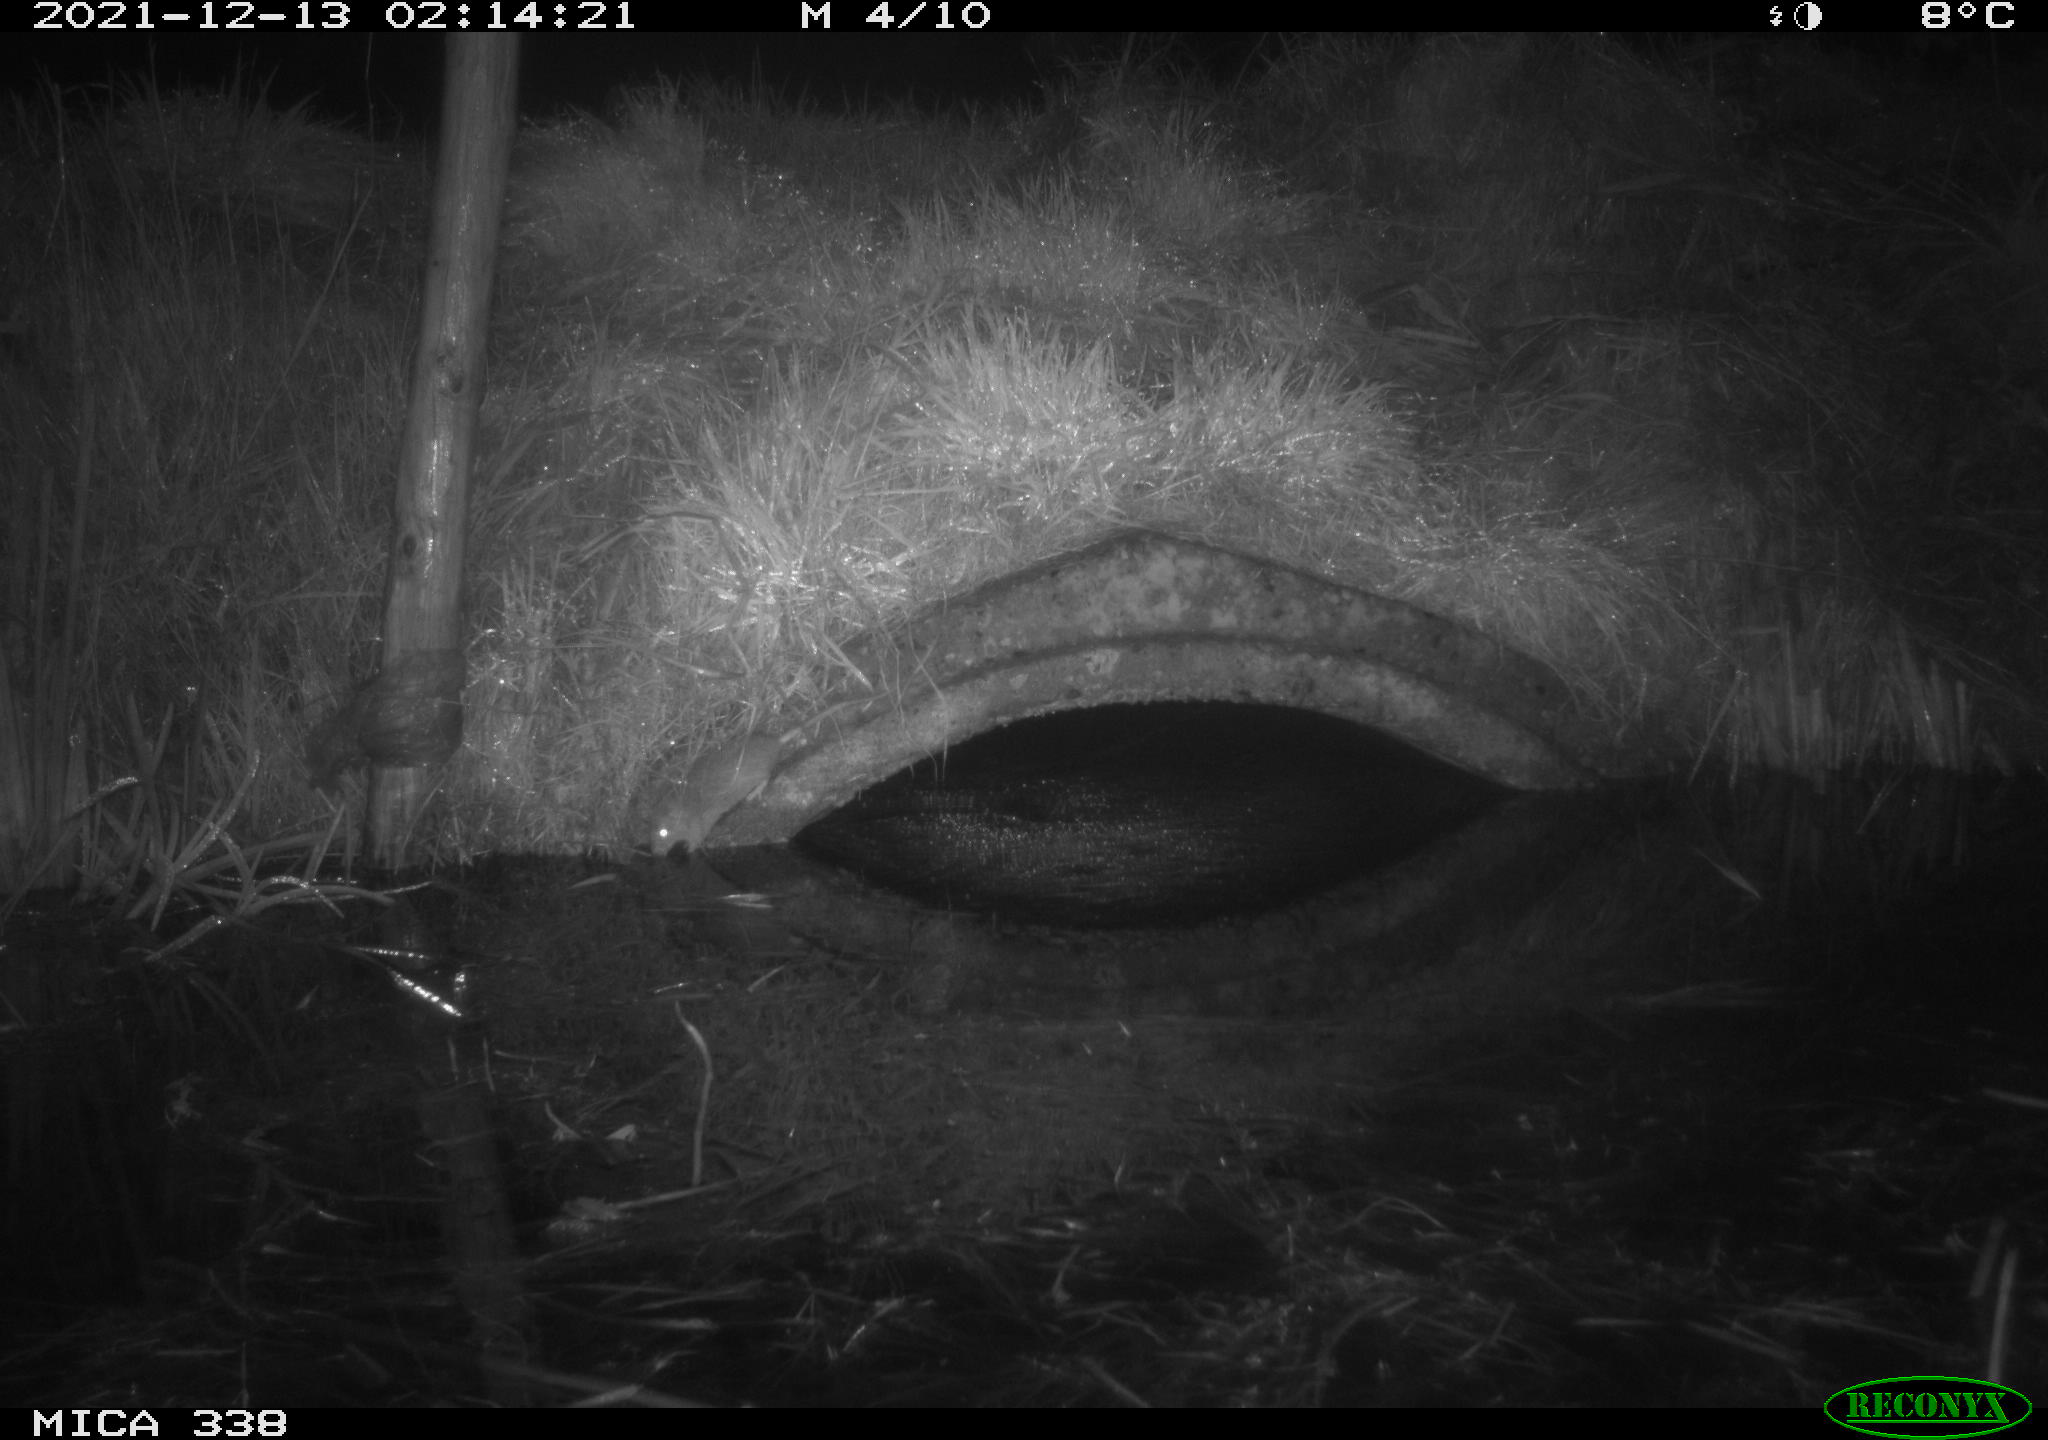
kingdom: Animalia
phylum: Chordata
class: Mammalia
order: Rodentia
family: Muridae
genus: Rattus
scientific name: Rattus norvegicus
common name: Brown rat
